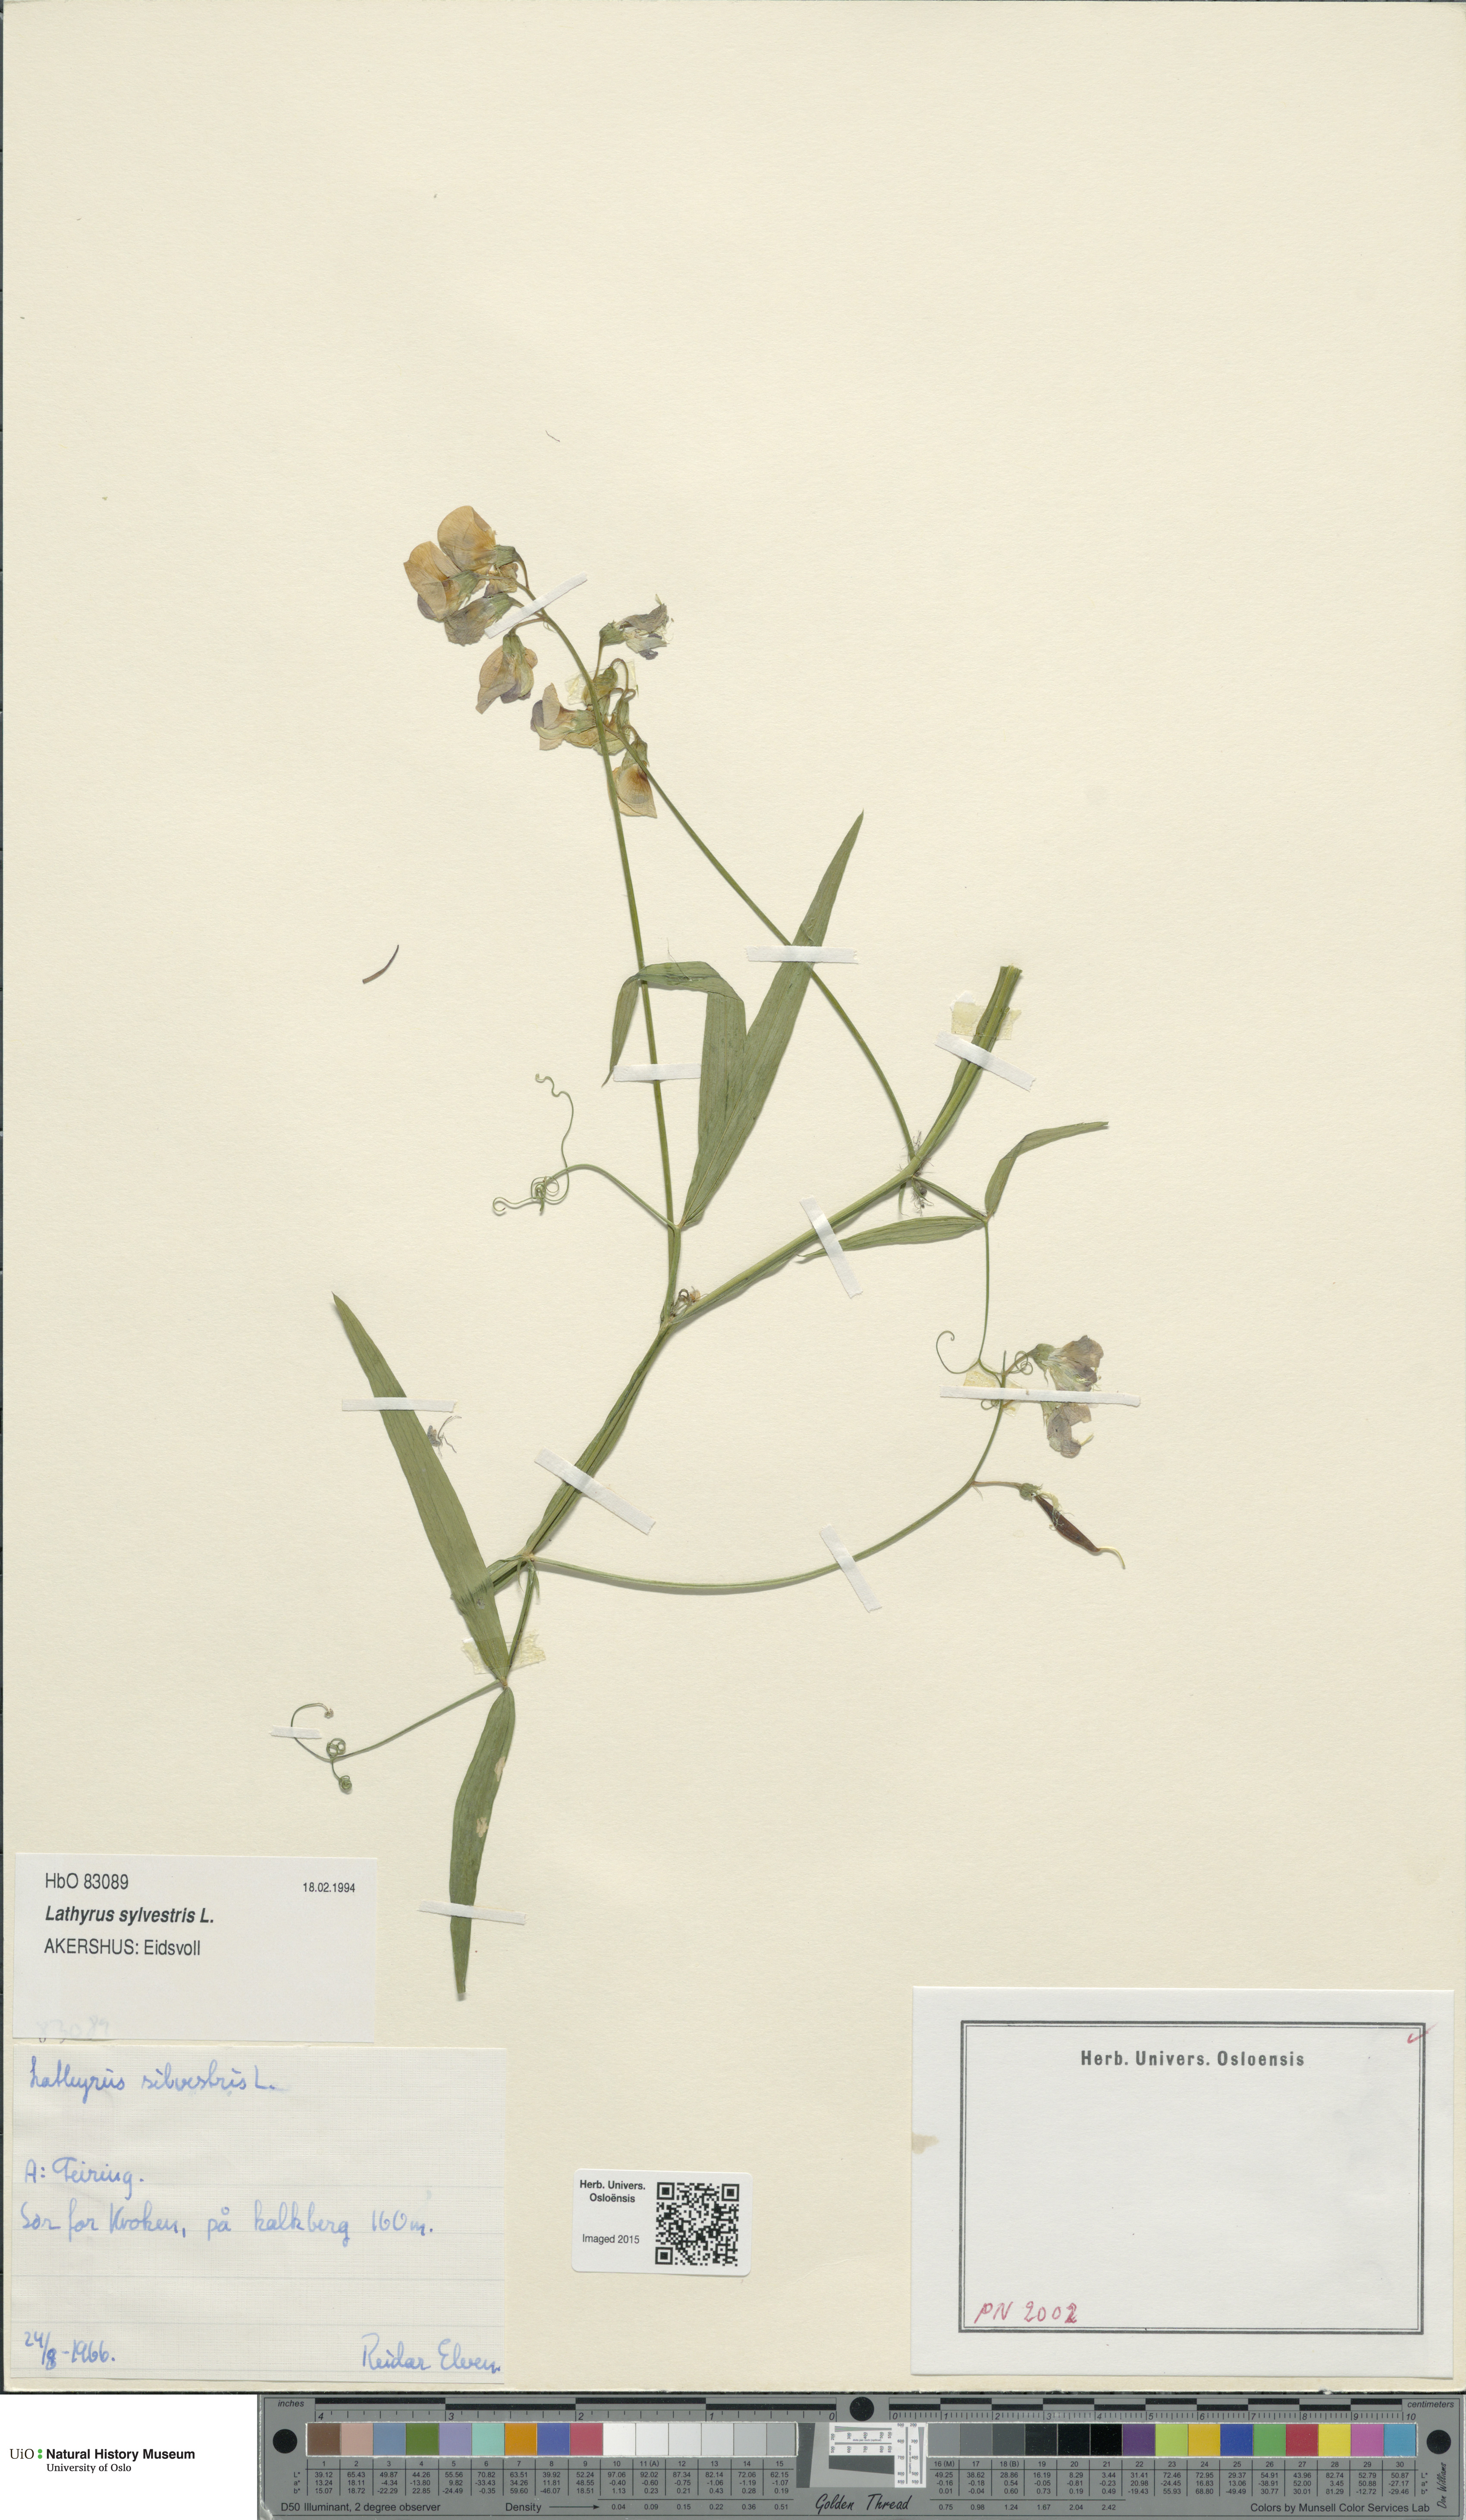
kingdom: Plantae
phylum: Tracheophyta
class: Magnoliopsida
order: Fabales
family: Fabaceae
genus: Lathyrus
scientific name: Lathyrus sylvestris
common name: Flat pea
